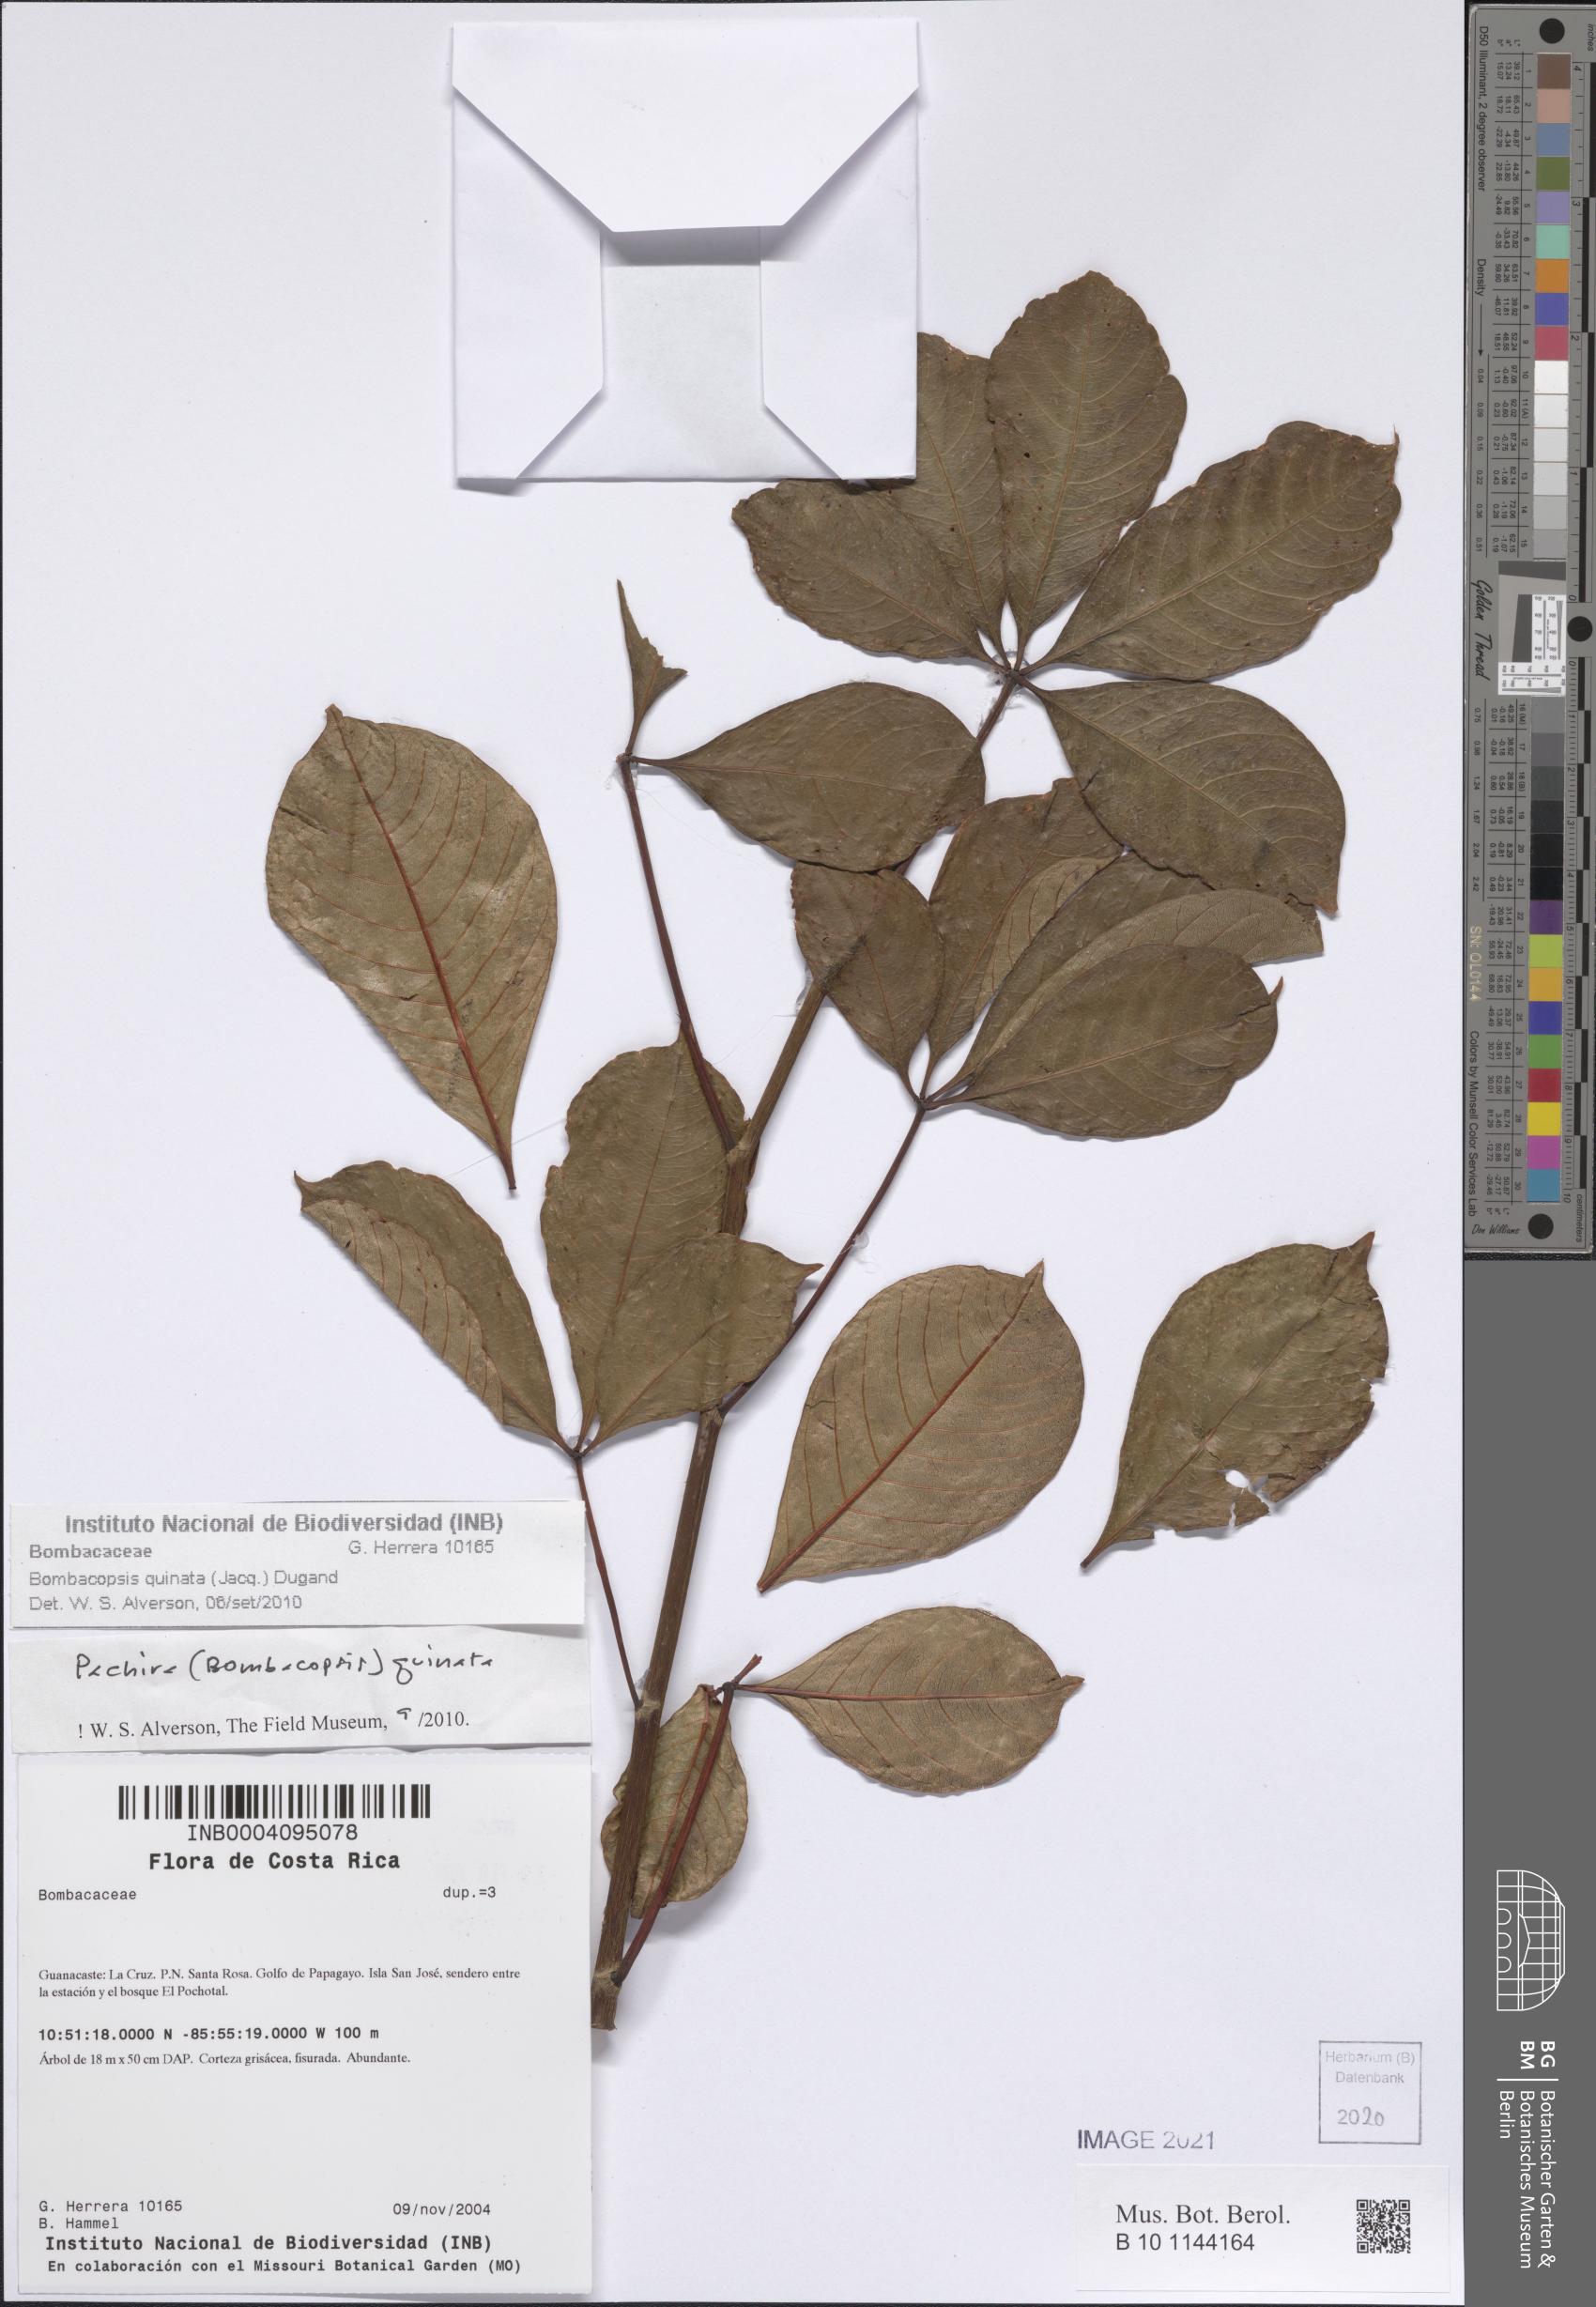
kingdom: Plantae
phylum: Tracheophyta
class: Magnoliopsida
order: Malvales
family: Malvaceae
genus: Pochota
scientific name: Pochota fendleri
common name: Chestnut
